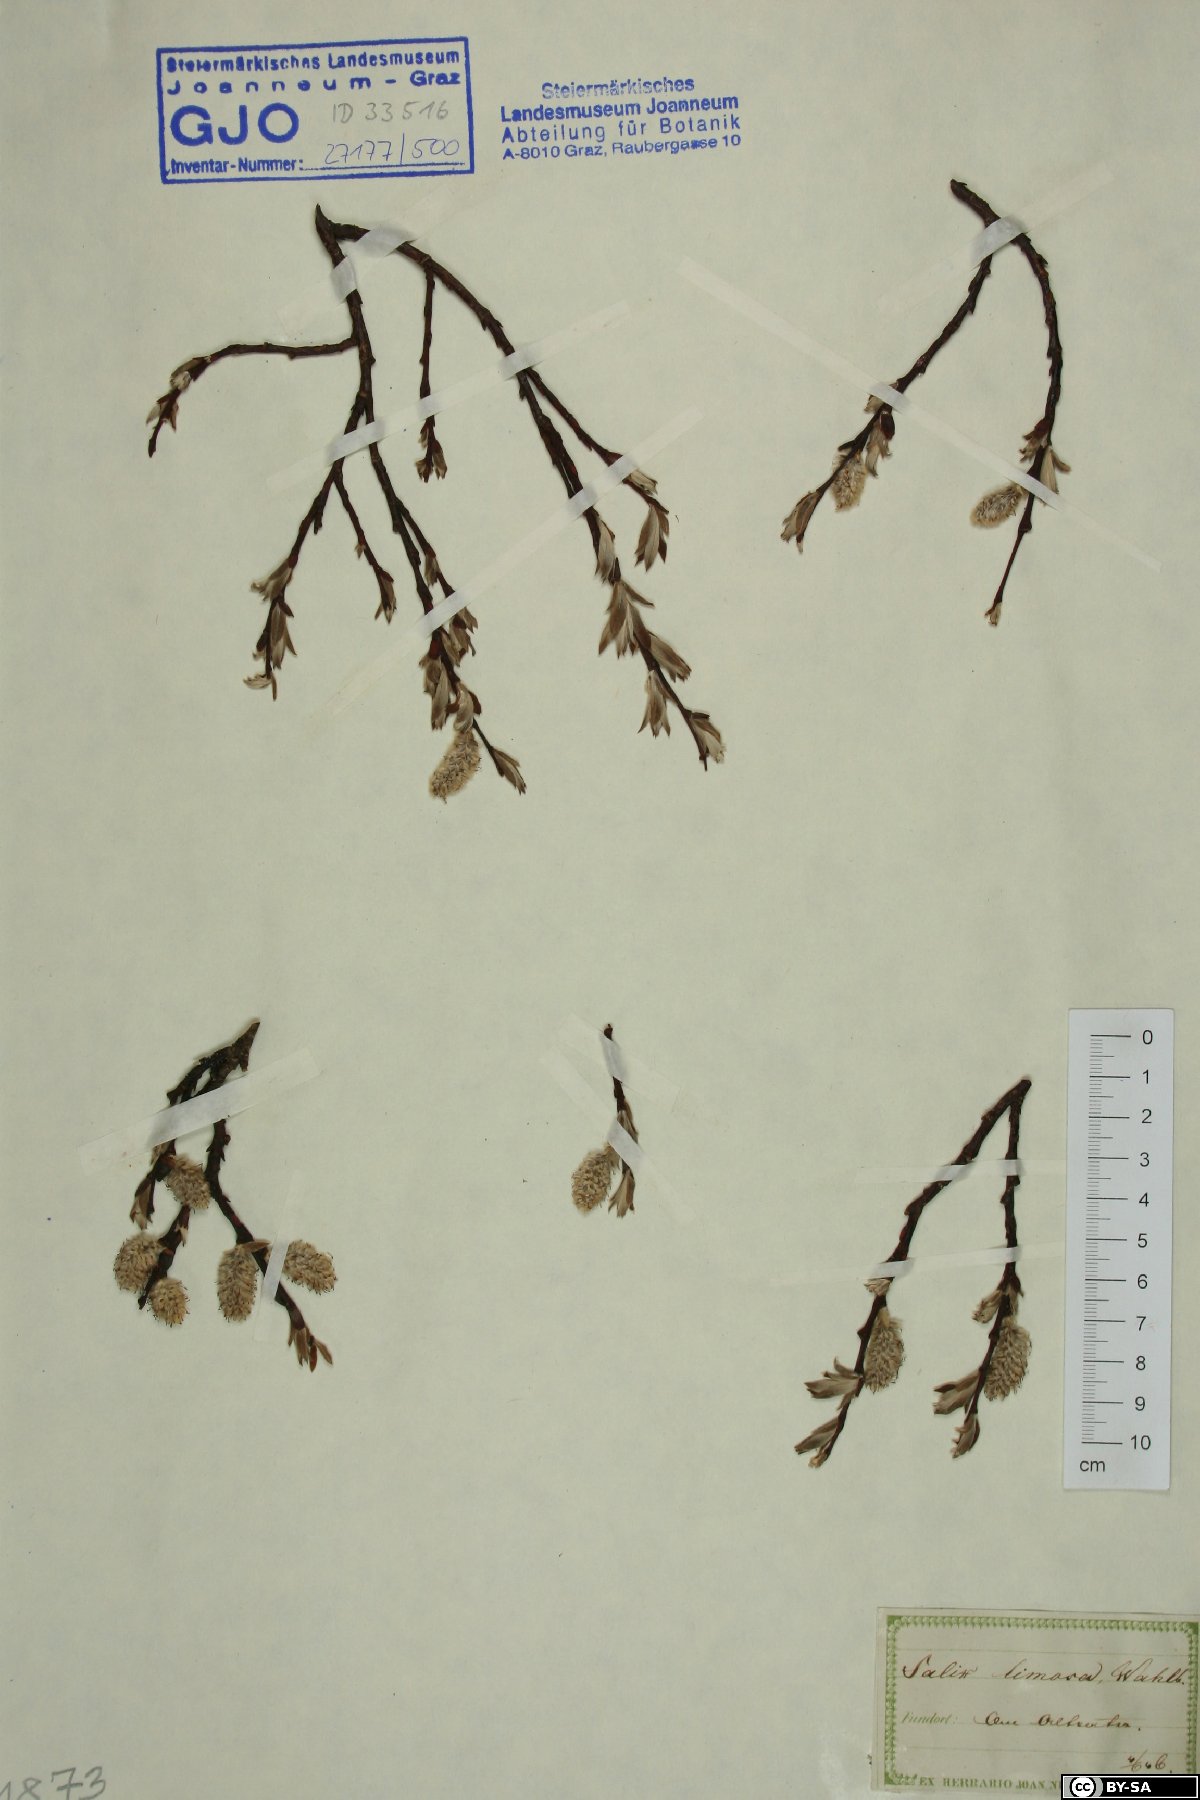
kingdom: Plantae
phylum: Tracheophyta
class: Magnoliopsida
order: Malpighiales
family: Salicaceae
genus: Salix
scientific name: Salix lapponum
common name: Downy willow
